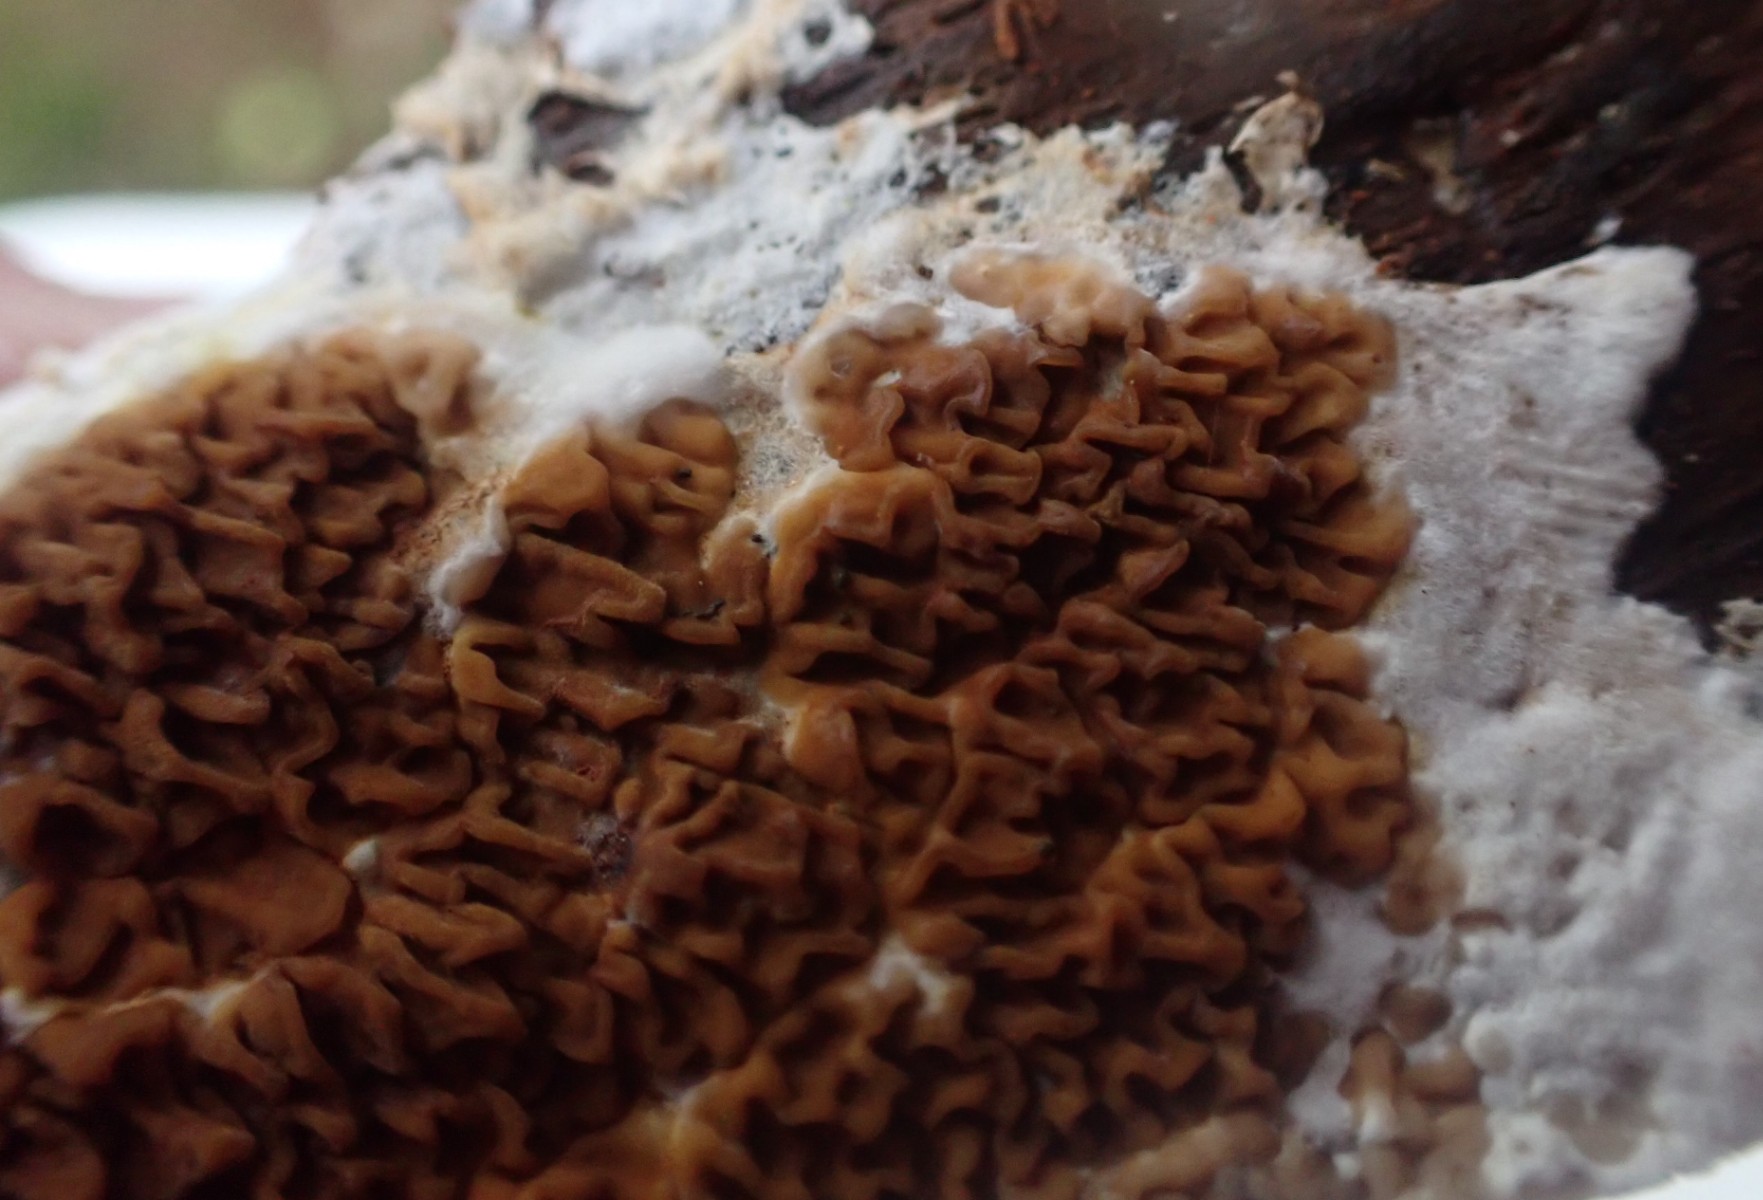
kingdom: Fungi
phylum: Basidiomycota
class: Agaricomycetes
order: Boletales
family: Serpulaceae
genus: Serpula
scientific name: Serpula himantioides
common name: tyndkødet hussvamp
